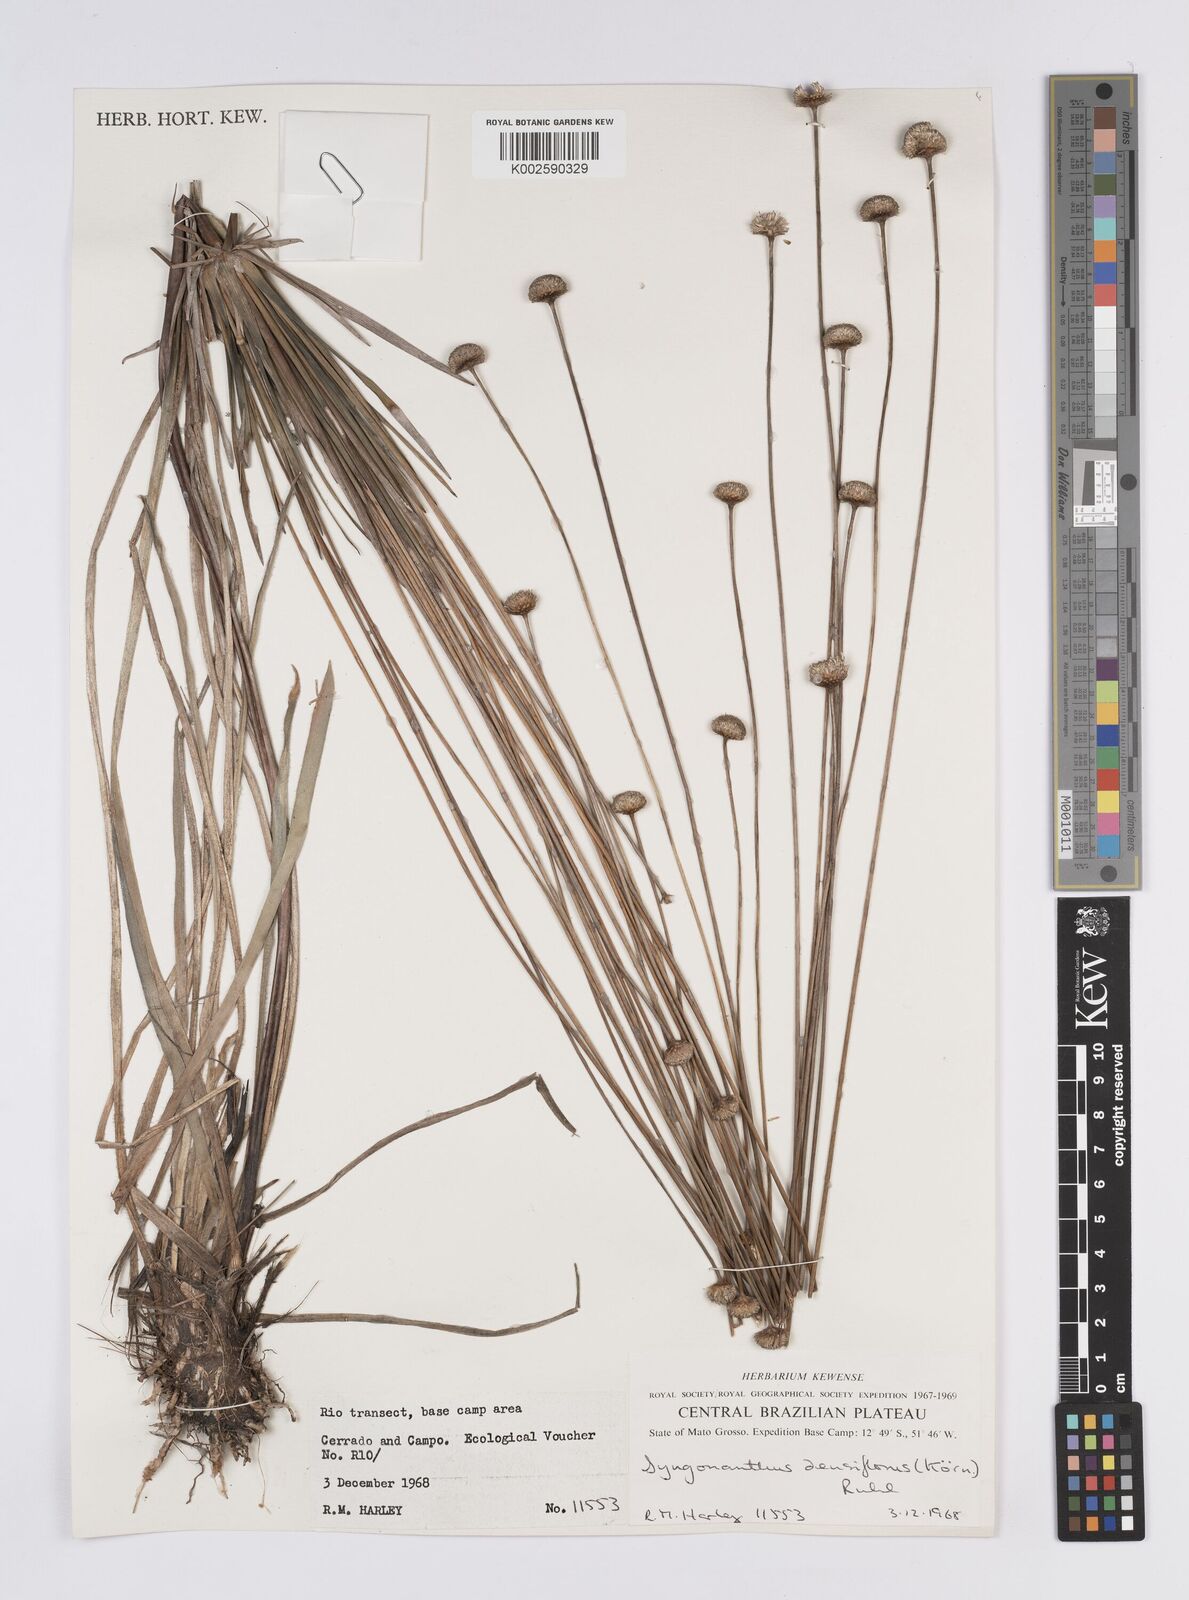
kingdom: Plantae
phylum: Tracheophyta
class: Liliopsida
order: Poales
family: Eriocaulaceae
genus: Syngonanthus
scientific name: Syngonanthus densiflorus
